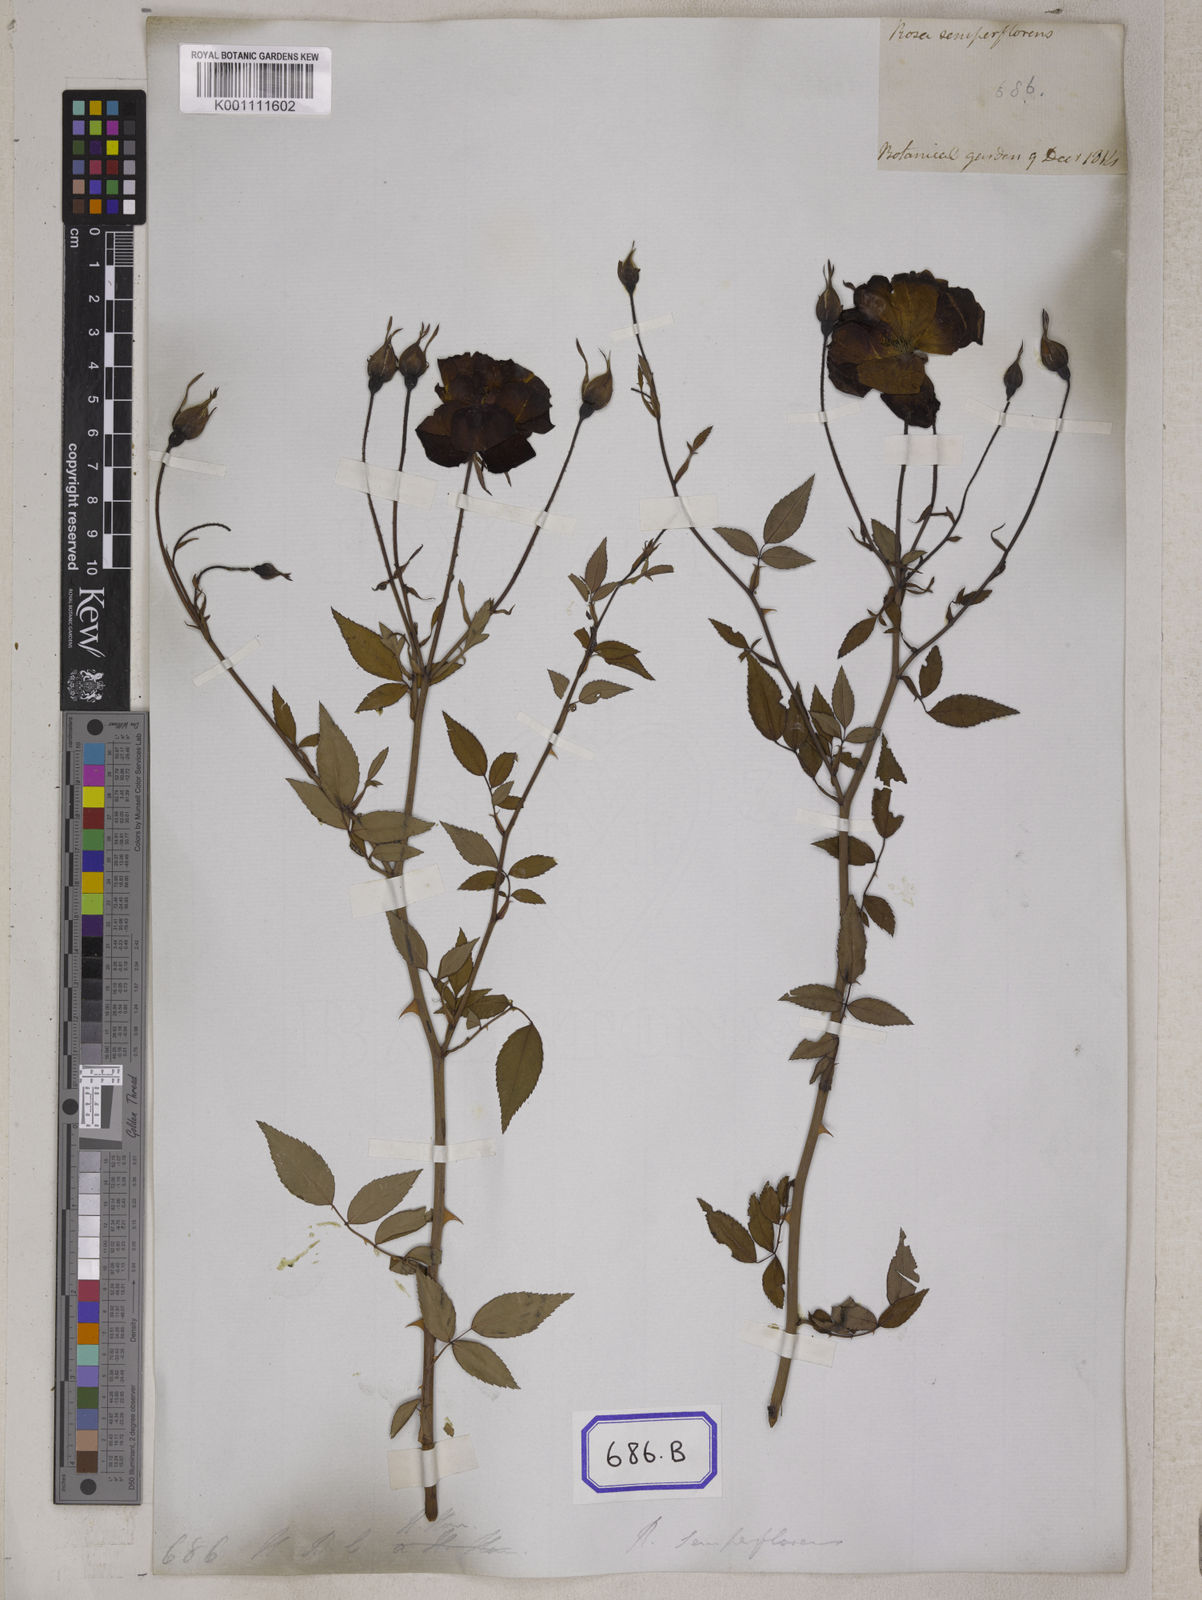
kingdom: Plantae
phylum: Tracheophyta
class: Magnoliopsida
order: Rosales
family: Rosaceae
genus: Rosa
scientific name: Rosa chinensis
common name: China rose
